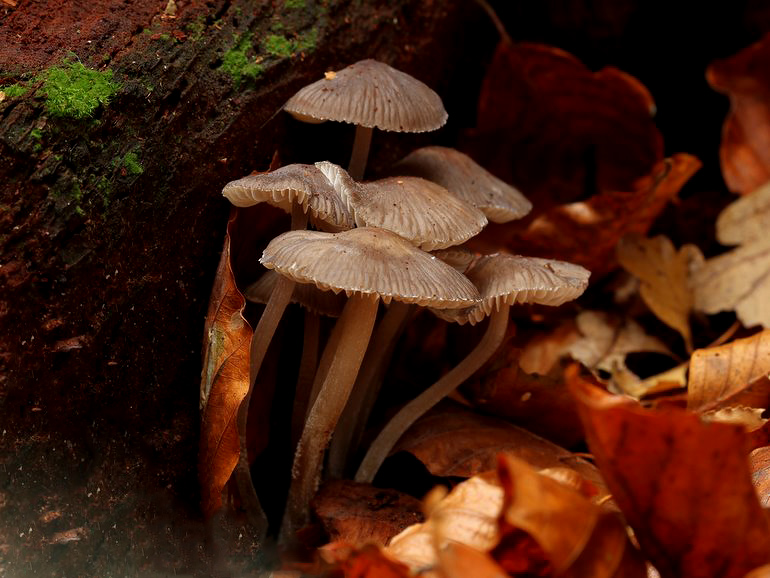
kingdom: Fungi
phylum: Basidiomycota
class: Agaricomycetes
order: Agaricales
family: Mycenaceae
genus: Mycena
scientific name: Mycena inclinata
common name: nikkende huesvamp
